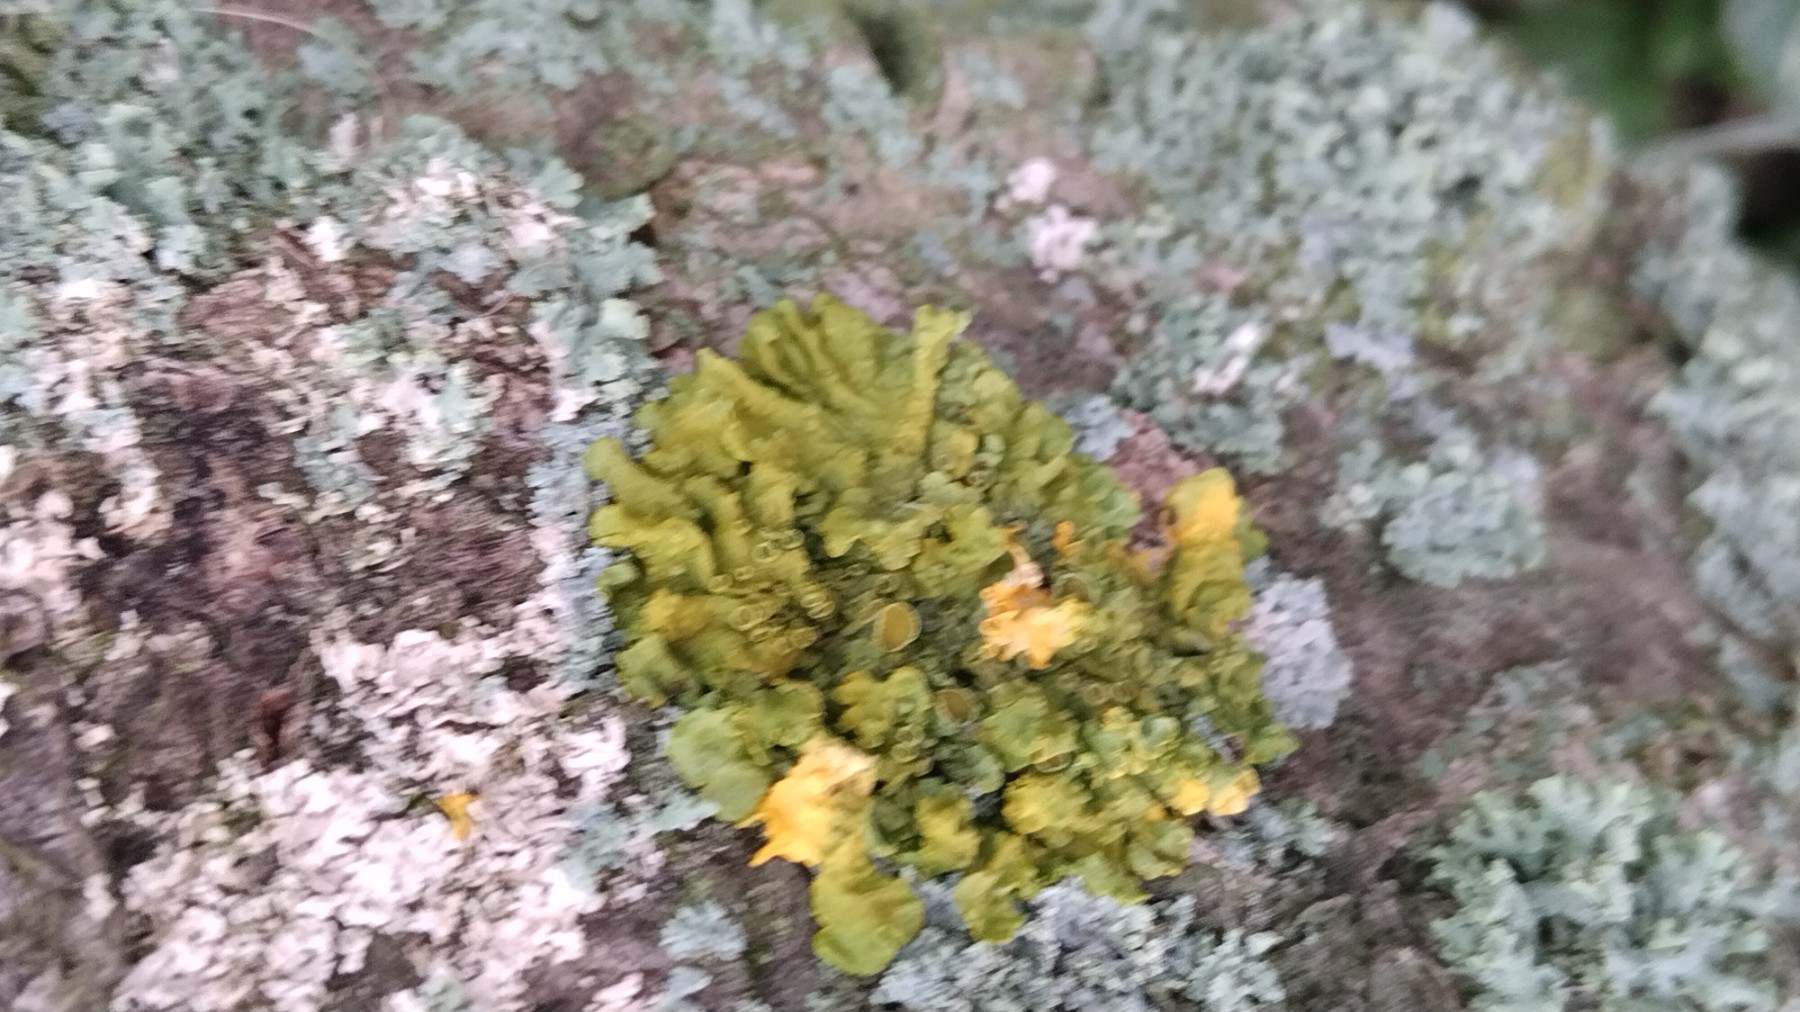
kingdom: Fungi
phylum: Ascomycota
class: Lecanoromycetes
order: Teloschistales
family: Teloschistaceae
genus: Xanthoria
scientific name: Xanthoria parietina
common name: almindelig væggelav
